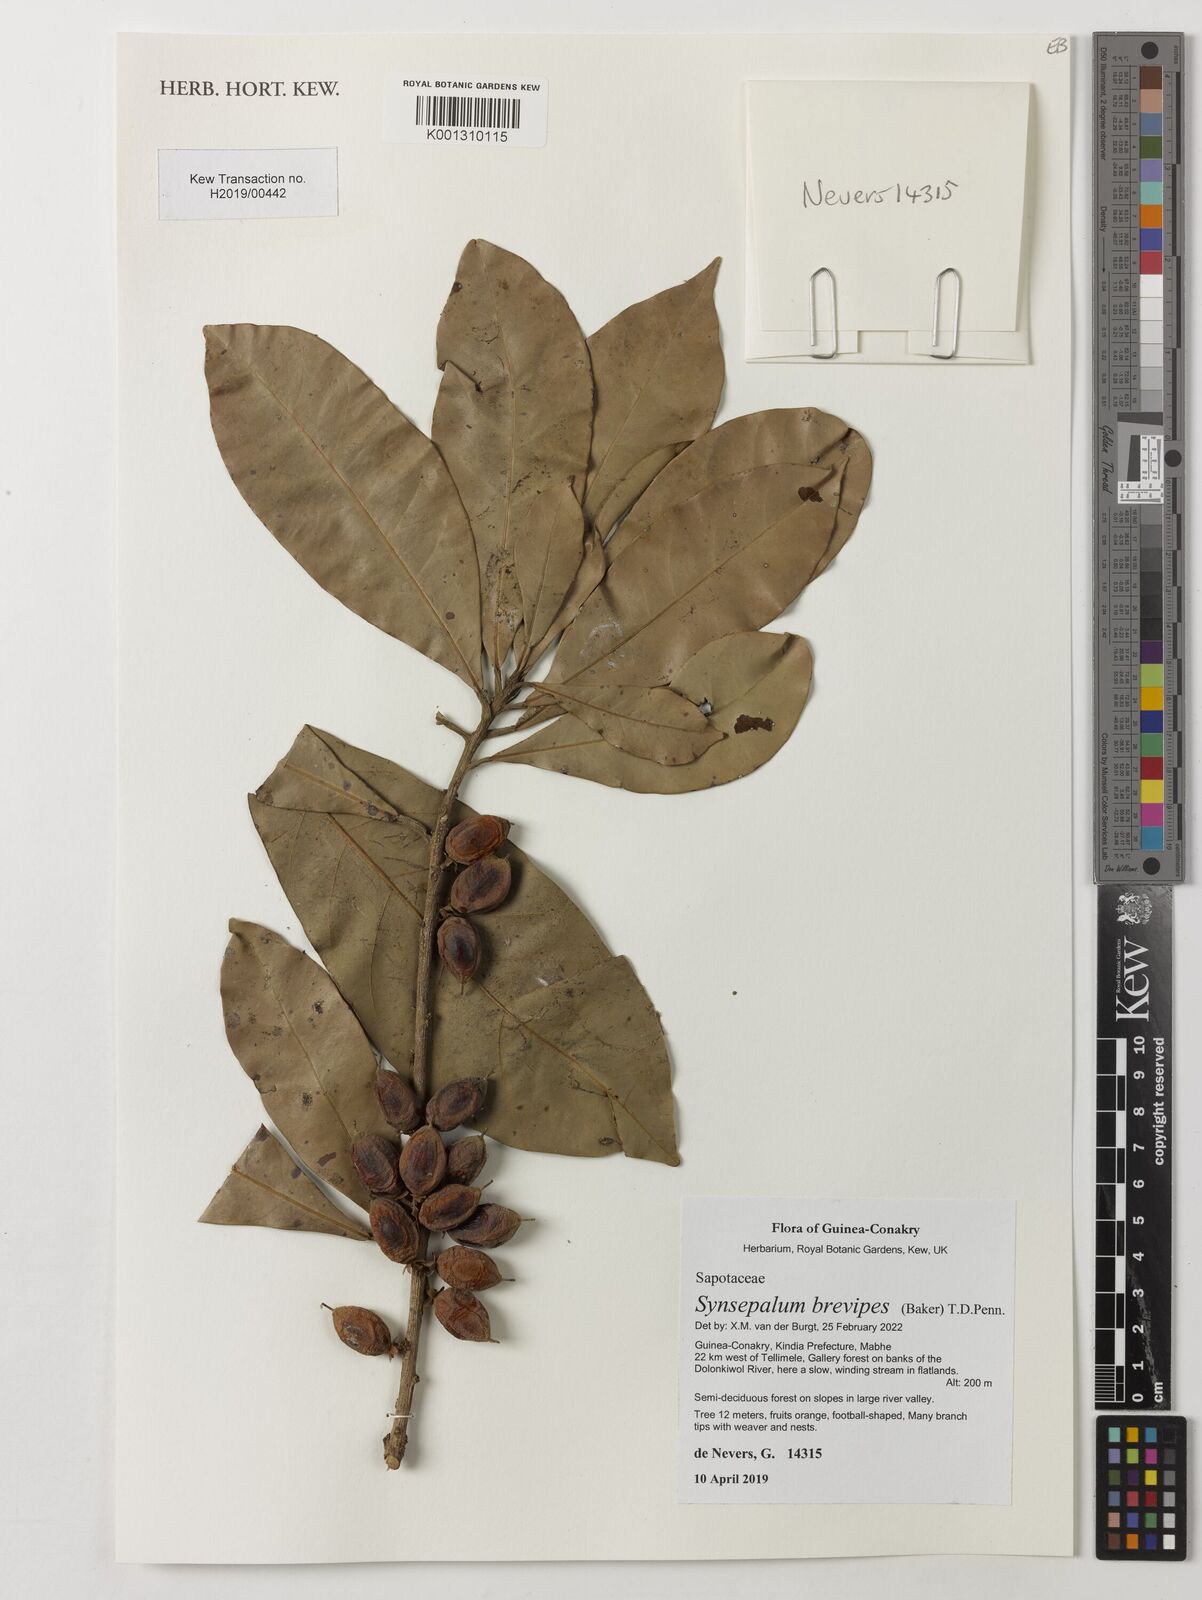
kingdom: Plantae
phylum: Tracheophyta
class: Magnoliopsida
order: Ericales
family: Sapotaceae
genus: Synsepalum
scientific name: Synsepalum brevipes
